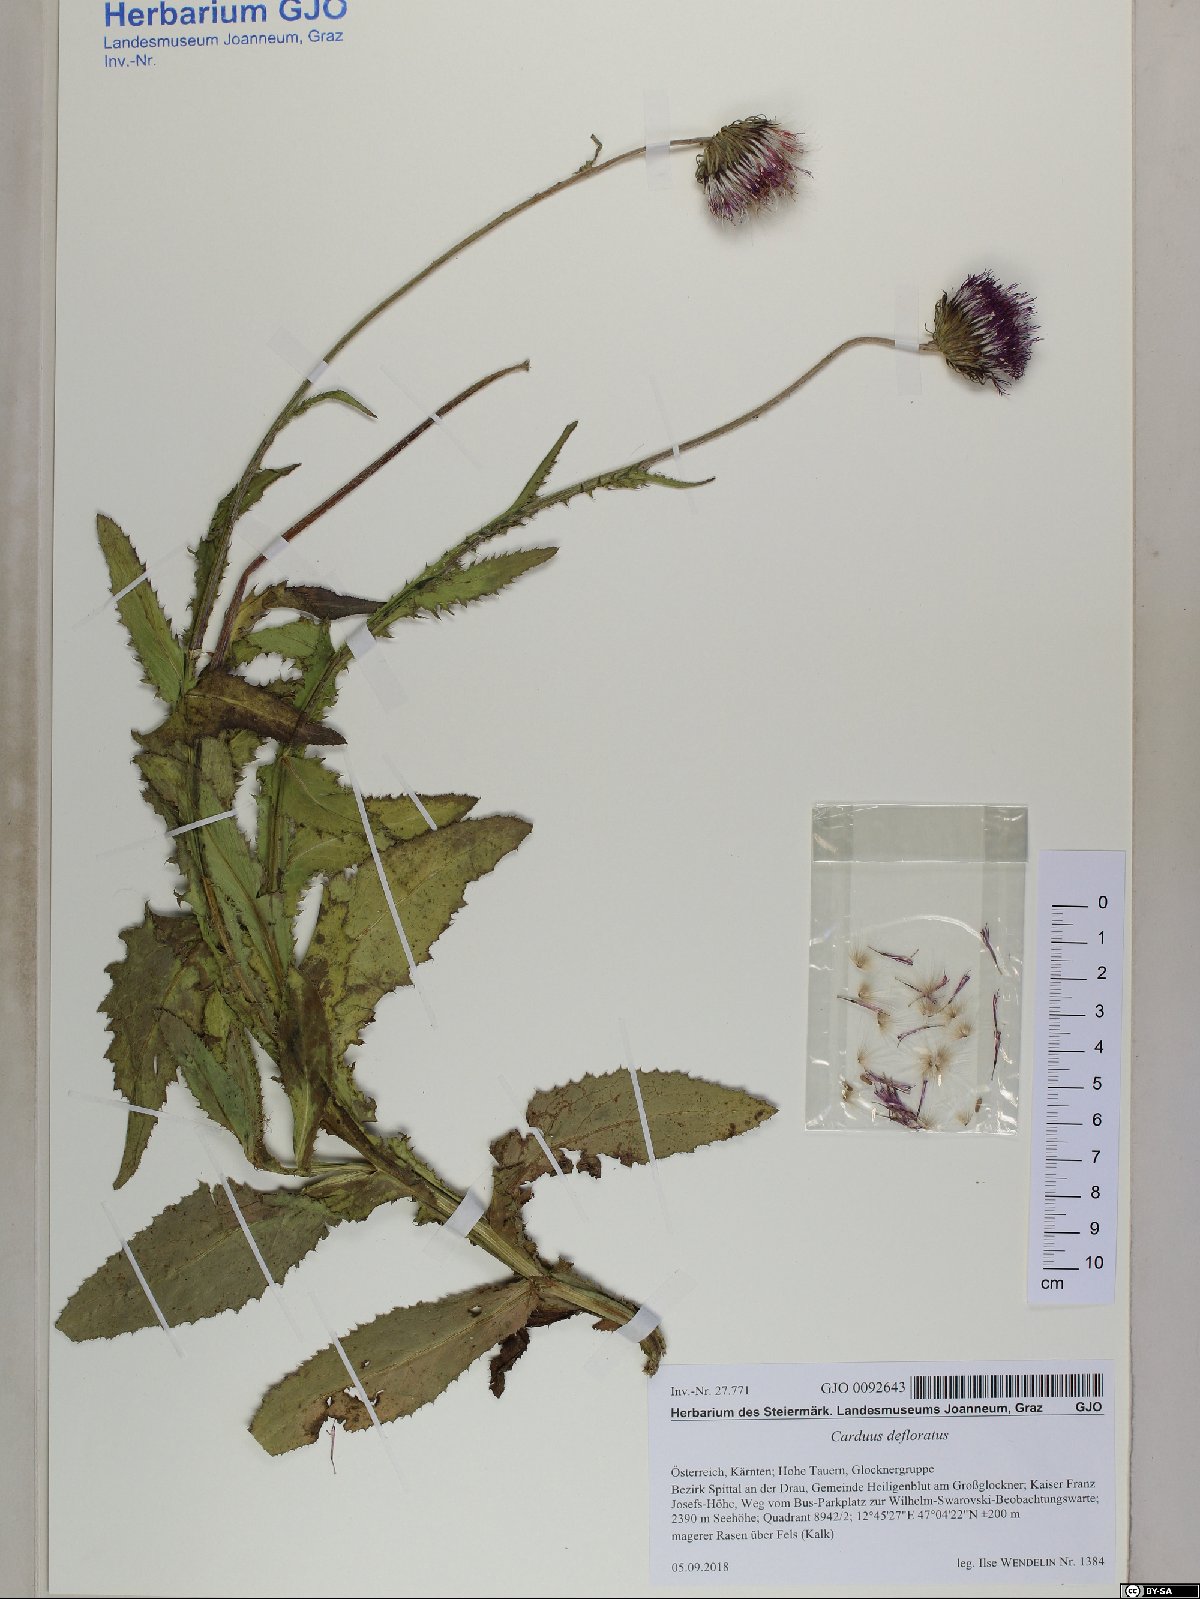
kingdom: Plantae
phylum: Tracheophyta
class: Magnoliopsida
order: Asterales
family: Asteraceae
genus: Carduus
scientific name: Carduus defloratus
